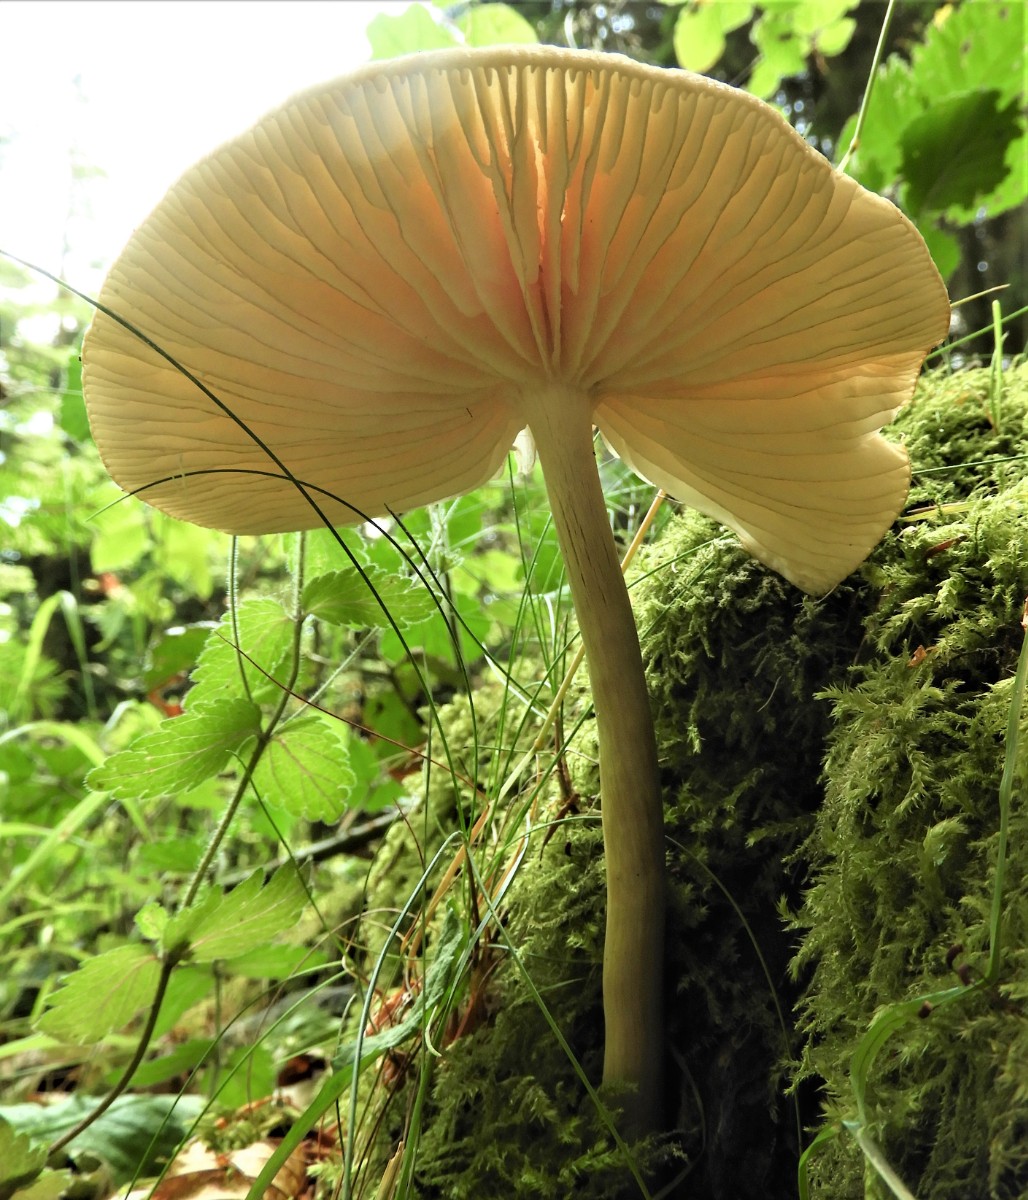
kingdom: Fungi
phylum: Basidiomycota
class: Agaricomycetes
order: Agaricales
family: Physalacriaceae
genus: Hymenopellis
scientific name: Hymenopellis radicata
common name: almindelig pælerodshat
